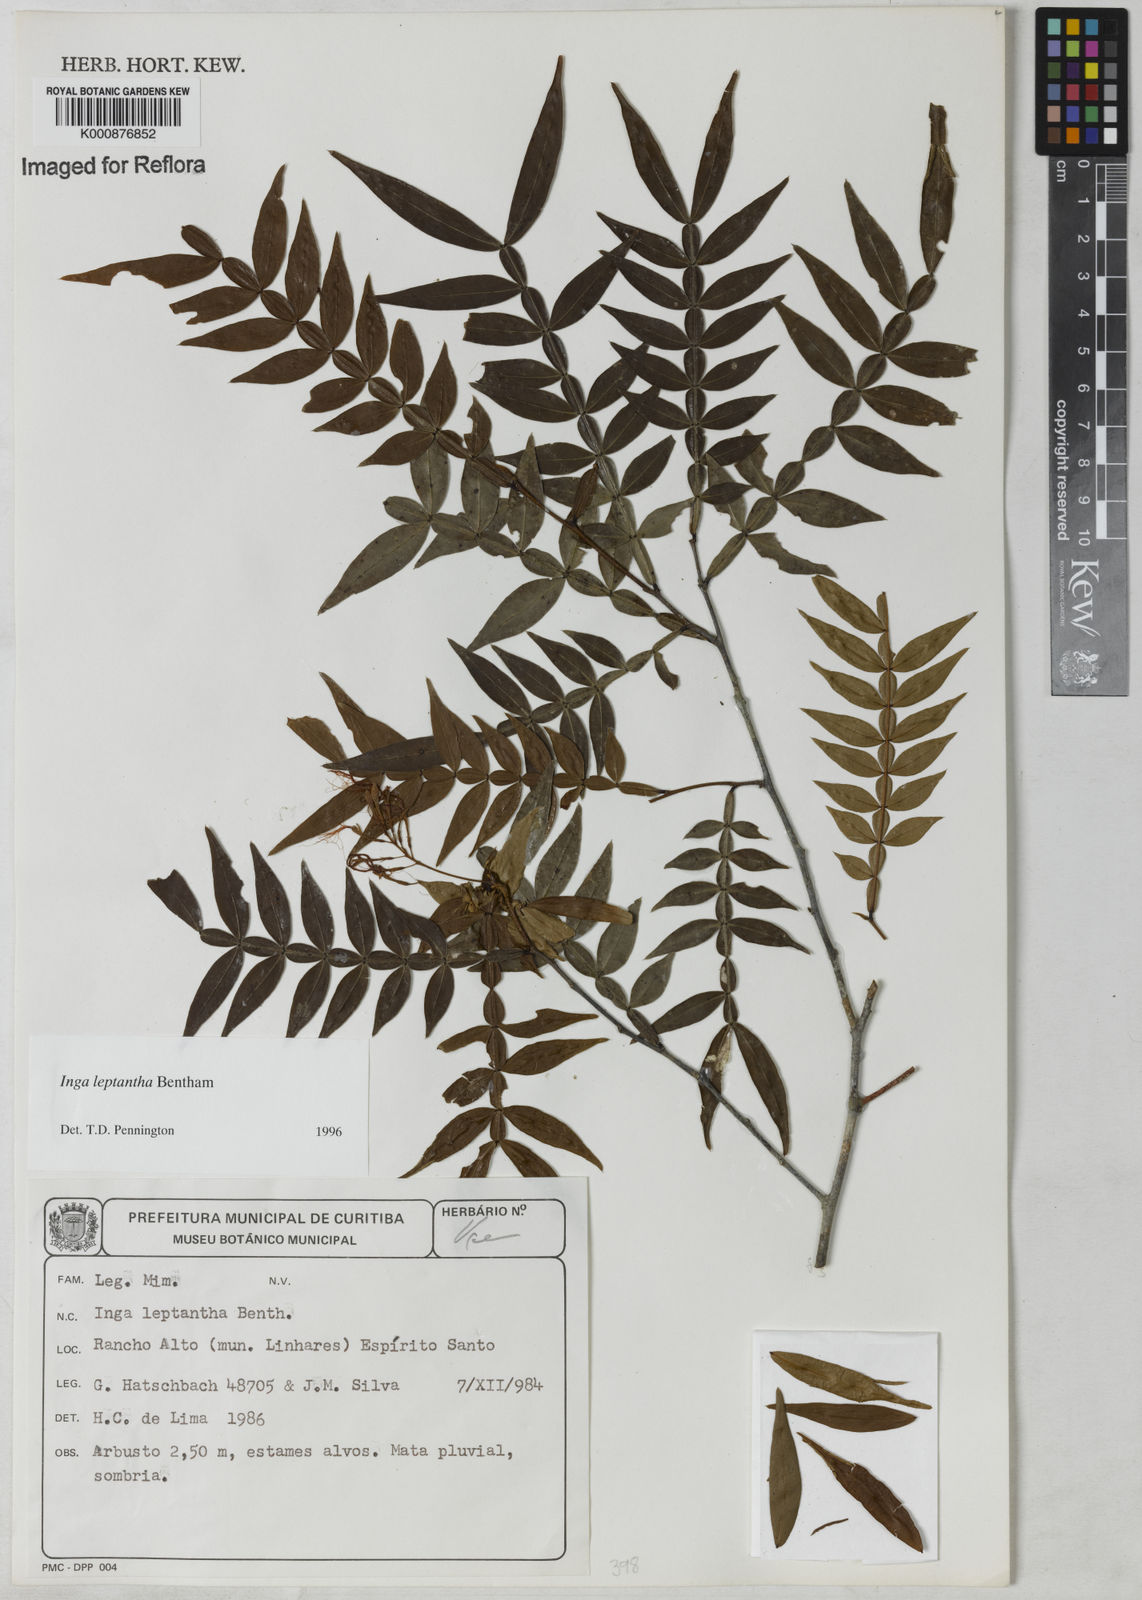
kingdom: Plantae
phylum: Tracheophyta
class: Magnoliopsida
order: Fabales
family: Fabaceae
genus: Inga
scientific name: Inga leptantha
